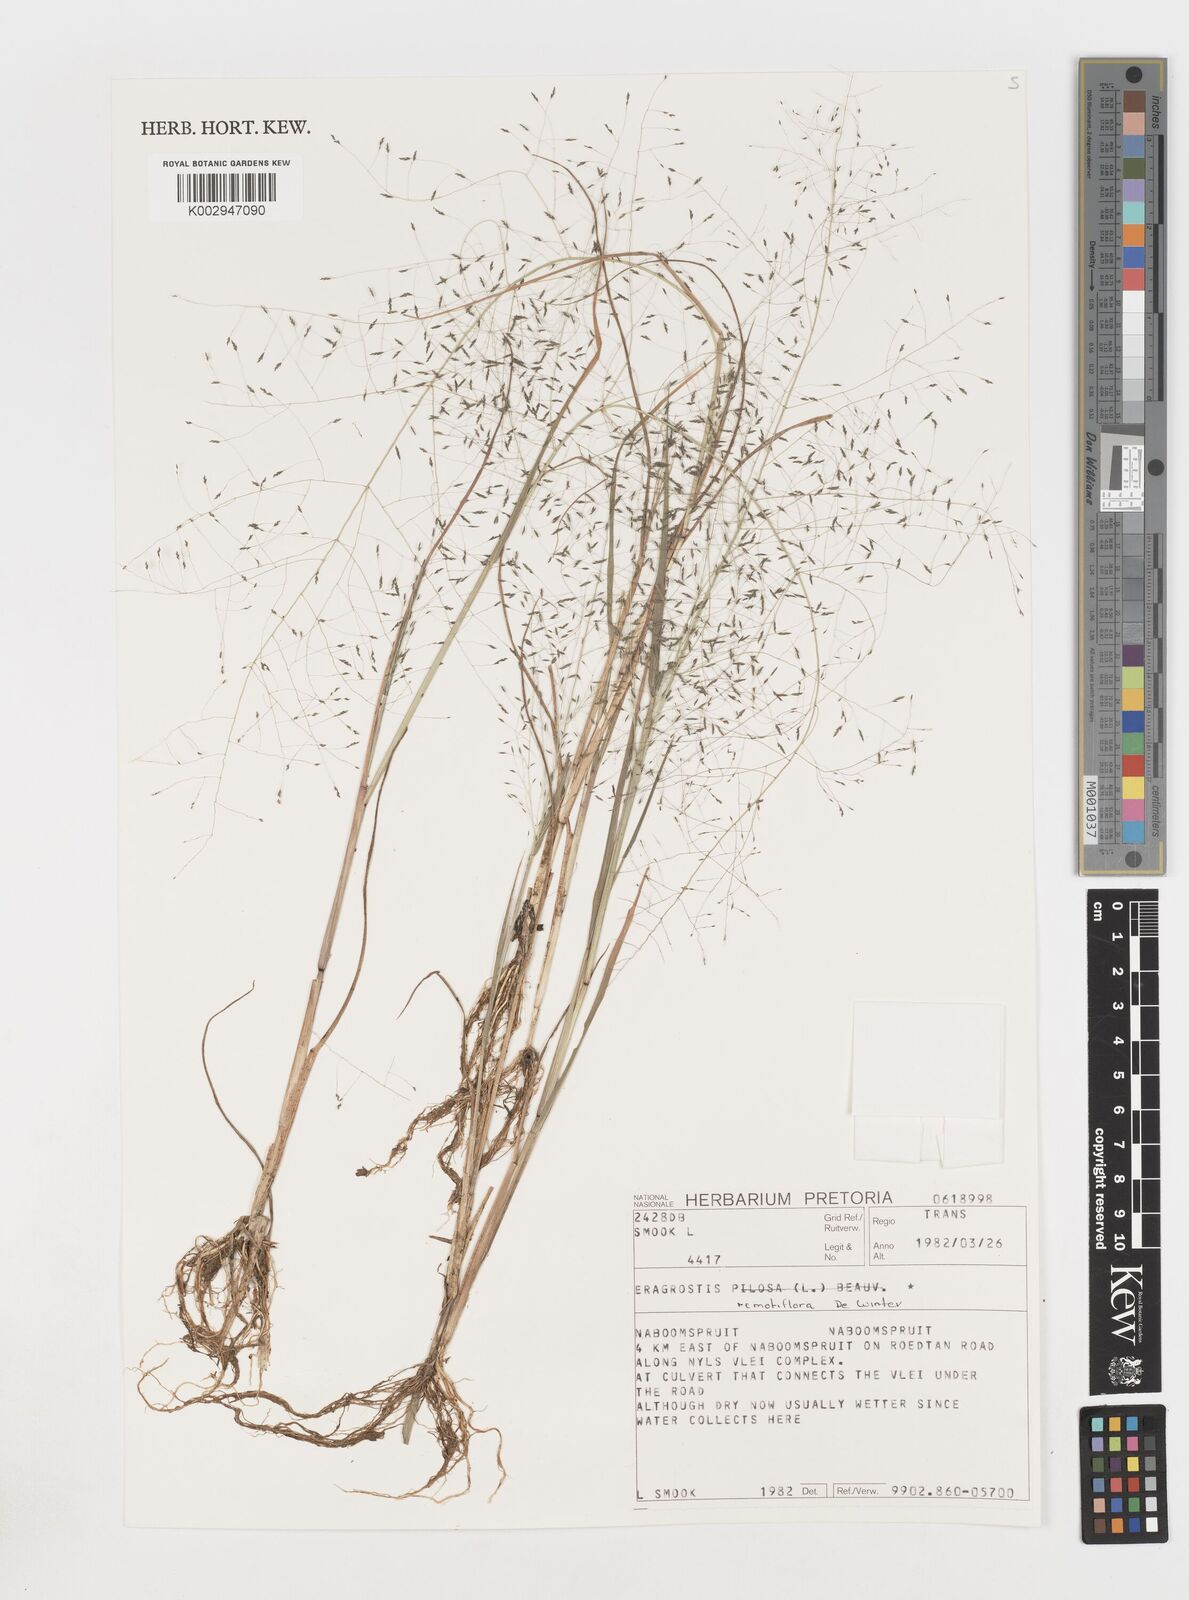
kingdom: Plantae
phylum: Tracheophyta
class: Liliopsida
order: Poales
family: Poaceae
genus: Eragrostis
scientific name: Eragrostis remotiflora
